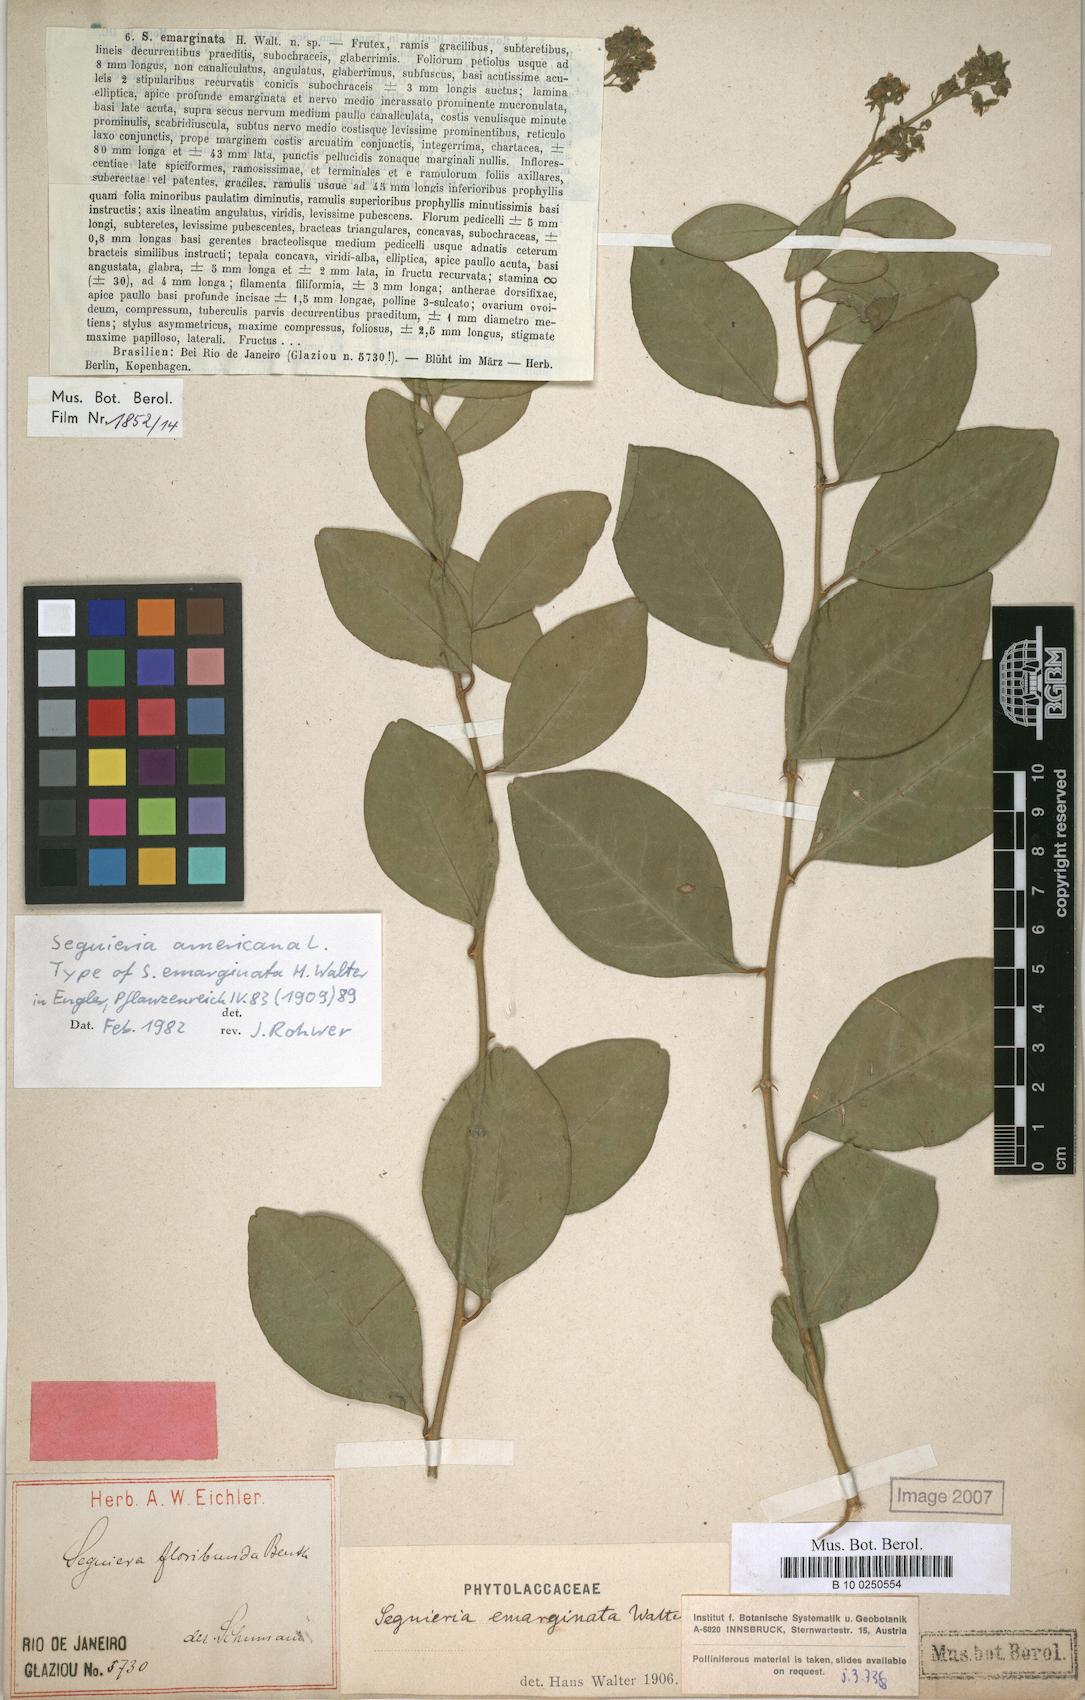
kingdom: Plantae
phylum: Tracheophyta
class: Magnoliopsida
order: Caryophyllales
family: Phytolaccaceae
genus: Seguieria
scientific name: Seguieria americana
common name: American seguieria
